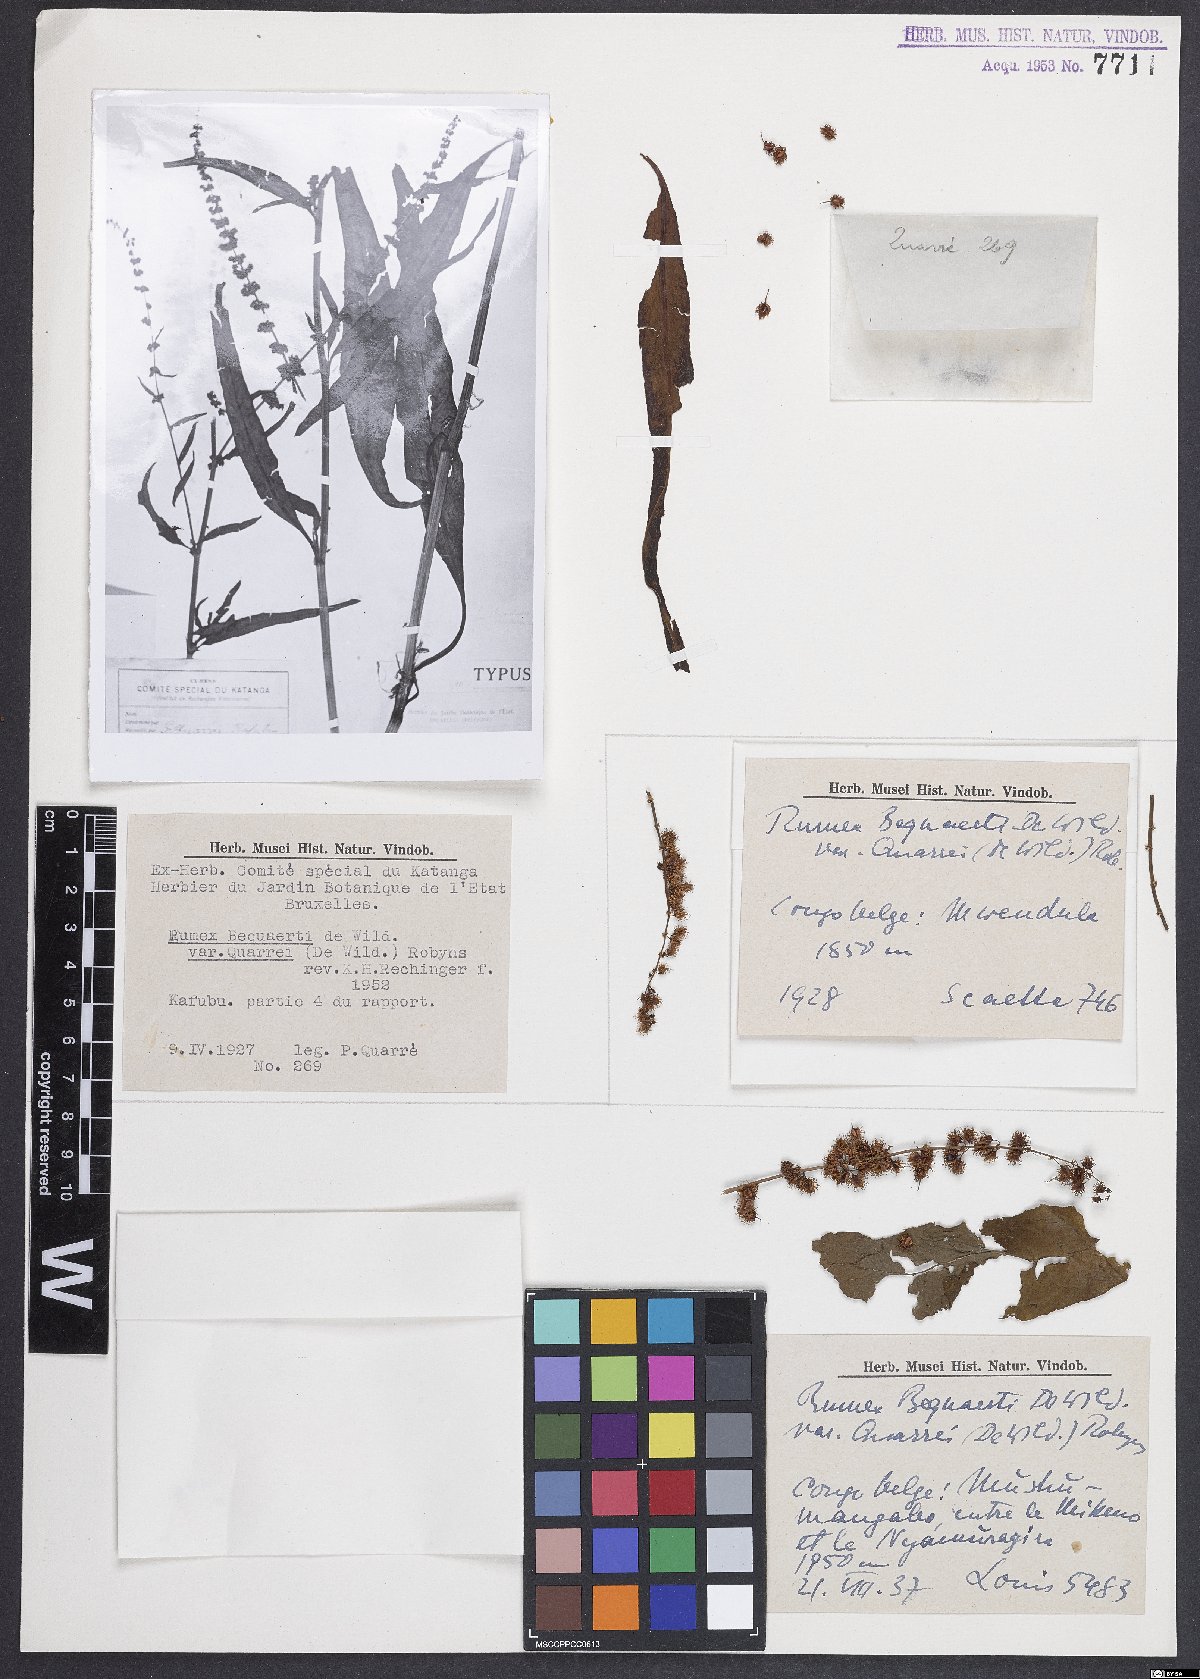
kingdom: Plantae
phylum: Tracheophyta
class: Magnoliopsida
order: Caryophyllales
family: Polygonaceae
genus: Rumex
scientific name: Rumex bequaertii
